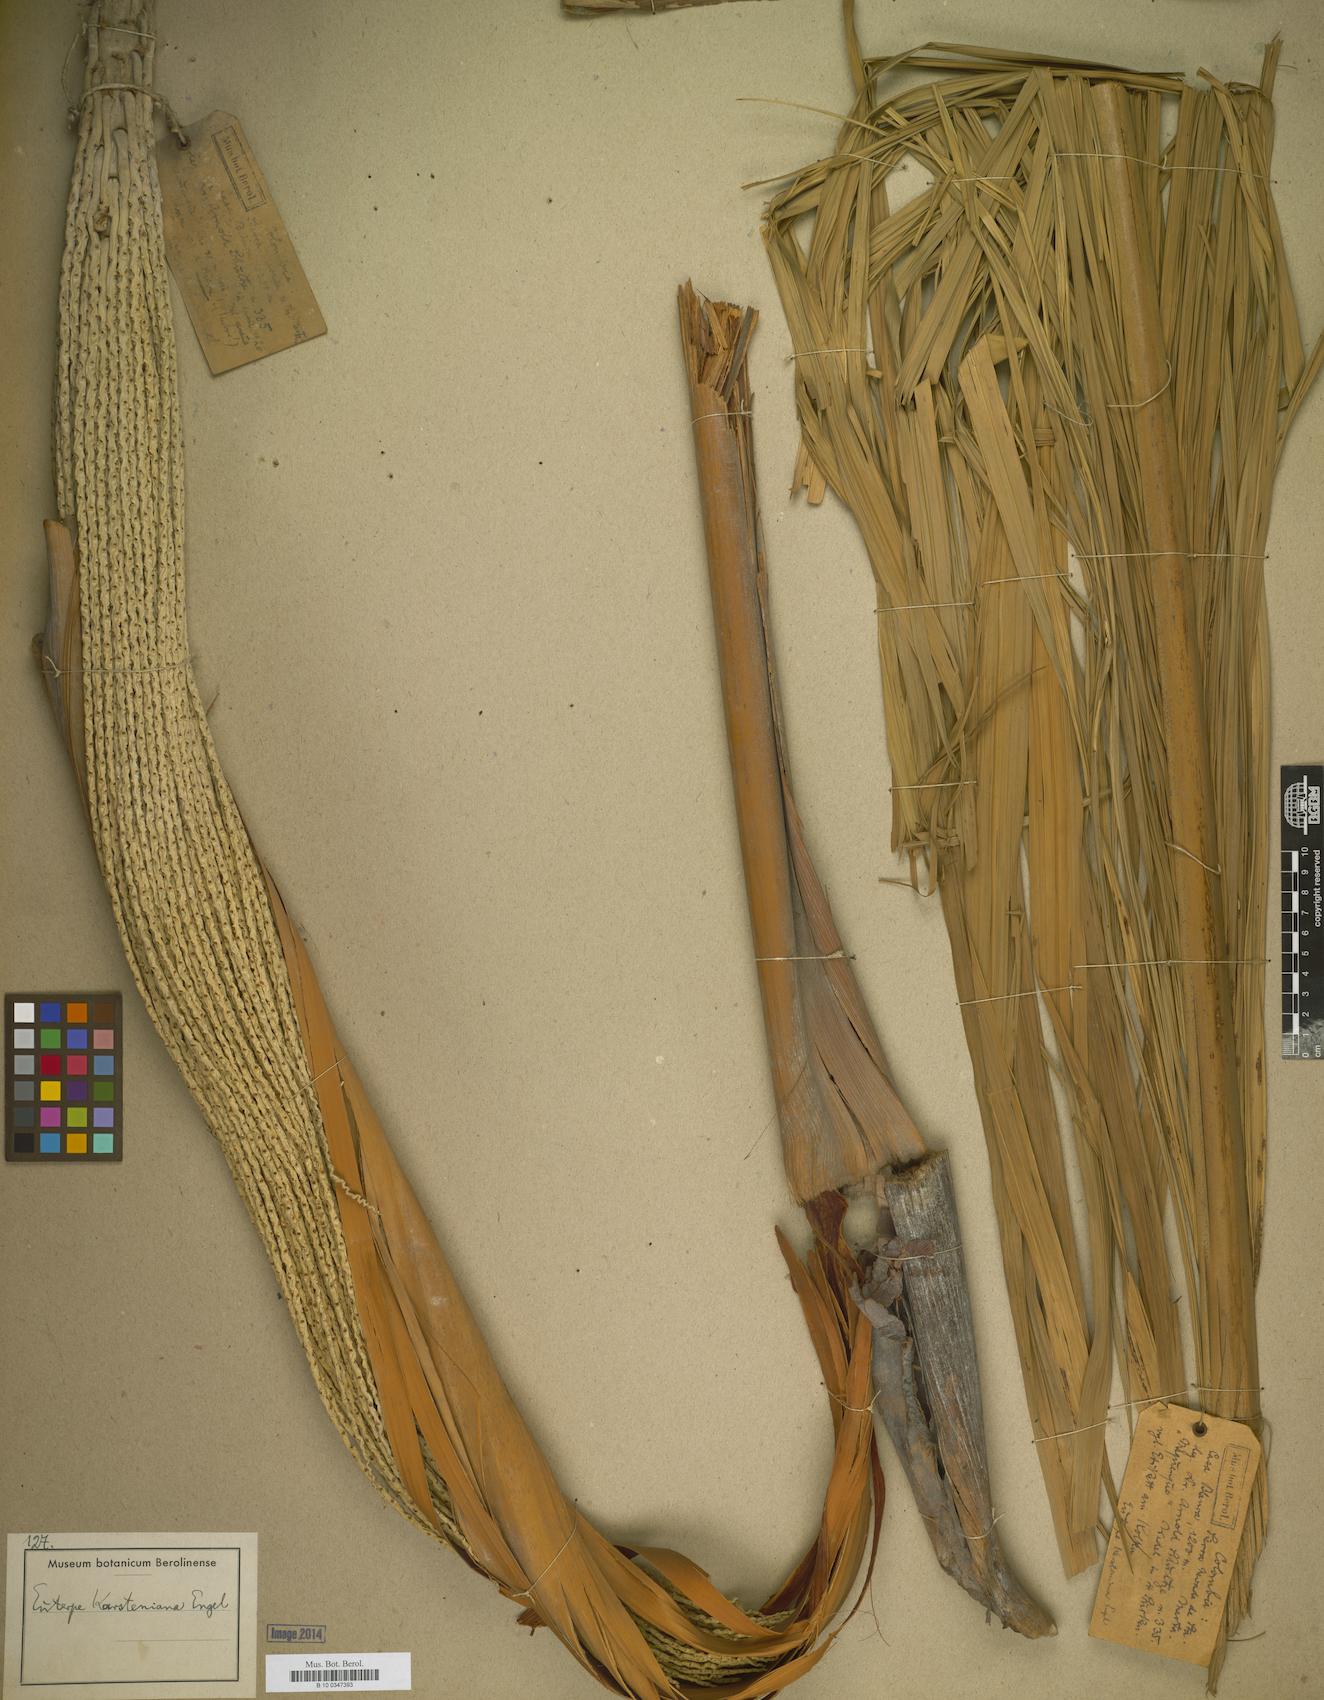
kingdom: Plantae
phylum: Tracheophyta
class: Liliopsida
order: Arecales
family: Arecaceae
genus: Euterpe
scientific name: Euterpe precatoria
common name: Mountain-cabbage
